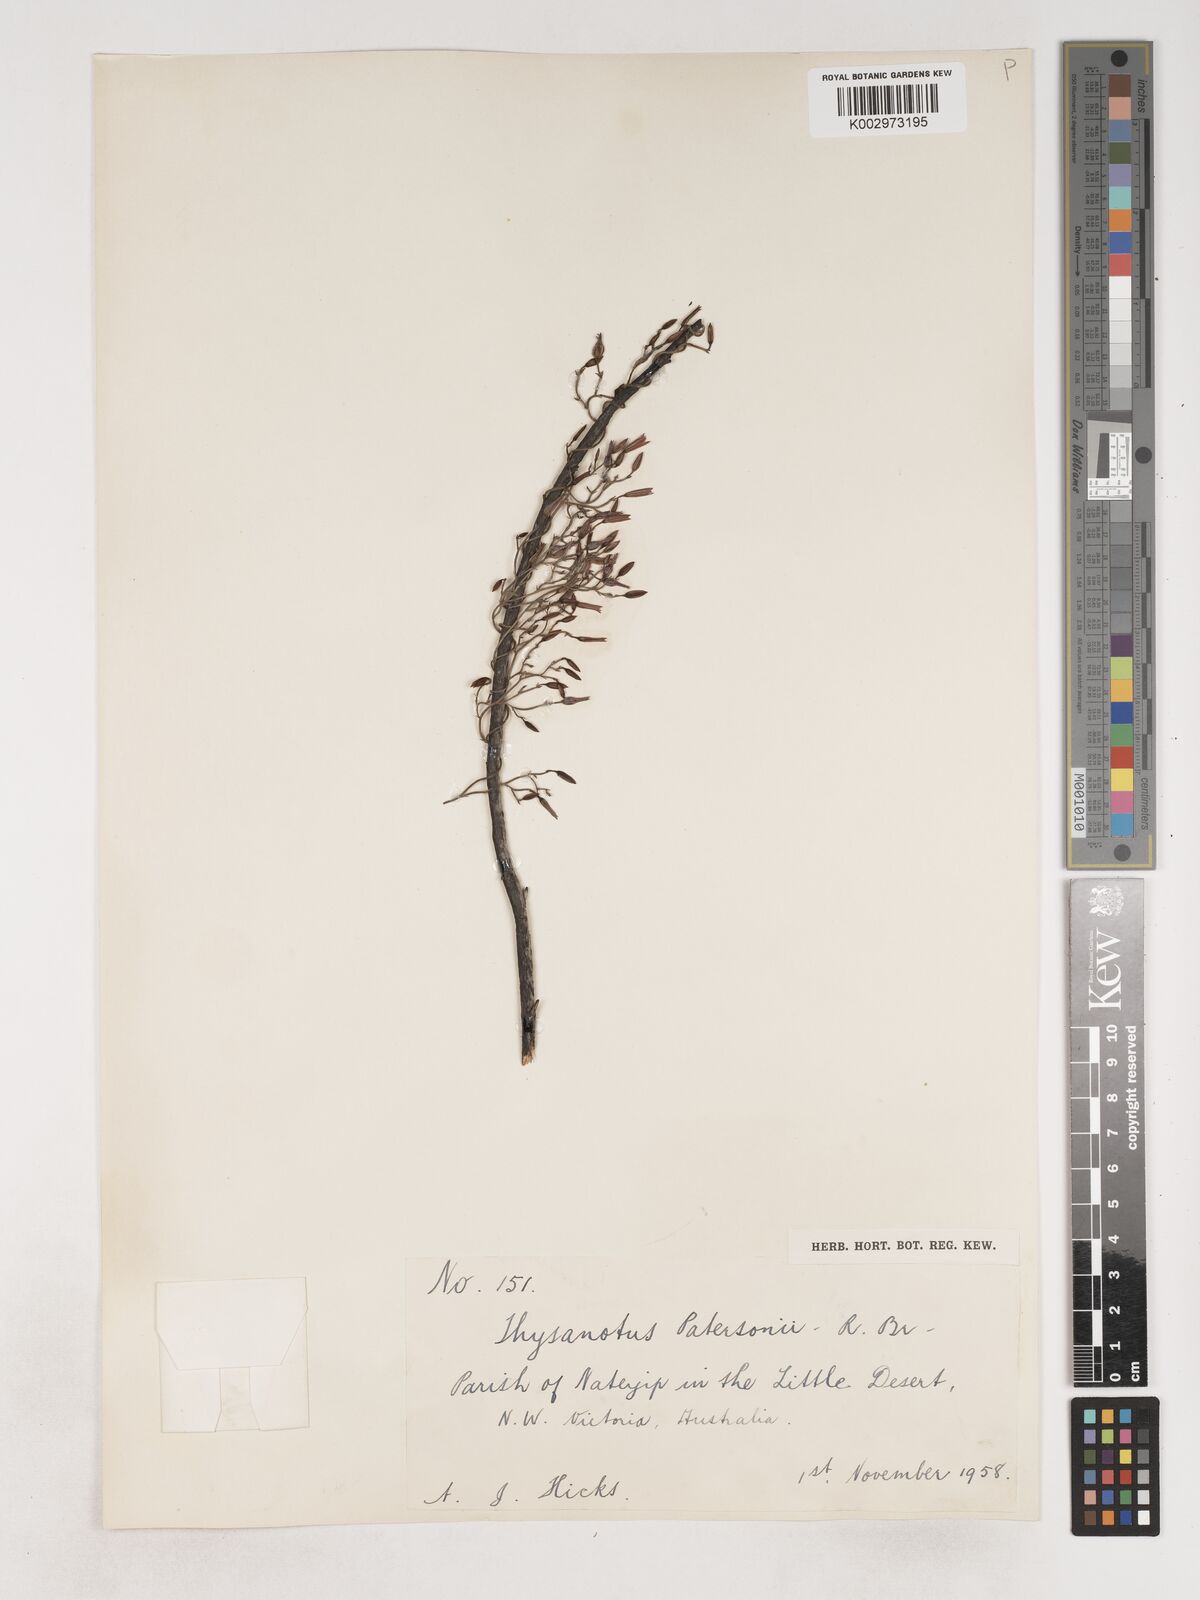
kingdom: Plantae
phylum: Tracheophyta
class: Liliopsida
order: Asparagales
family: Asparagaceae
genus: Thysanotus
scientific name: Thysanotus patersonii
